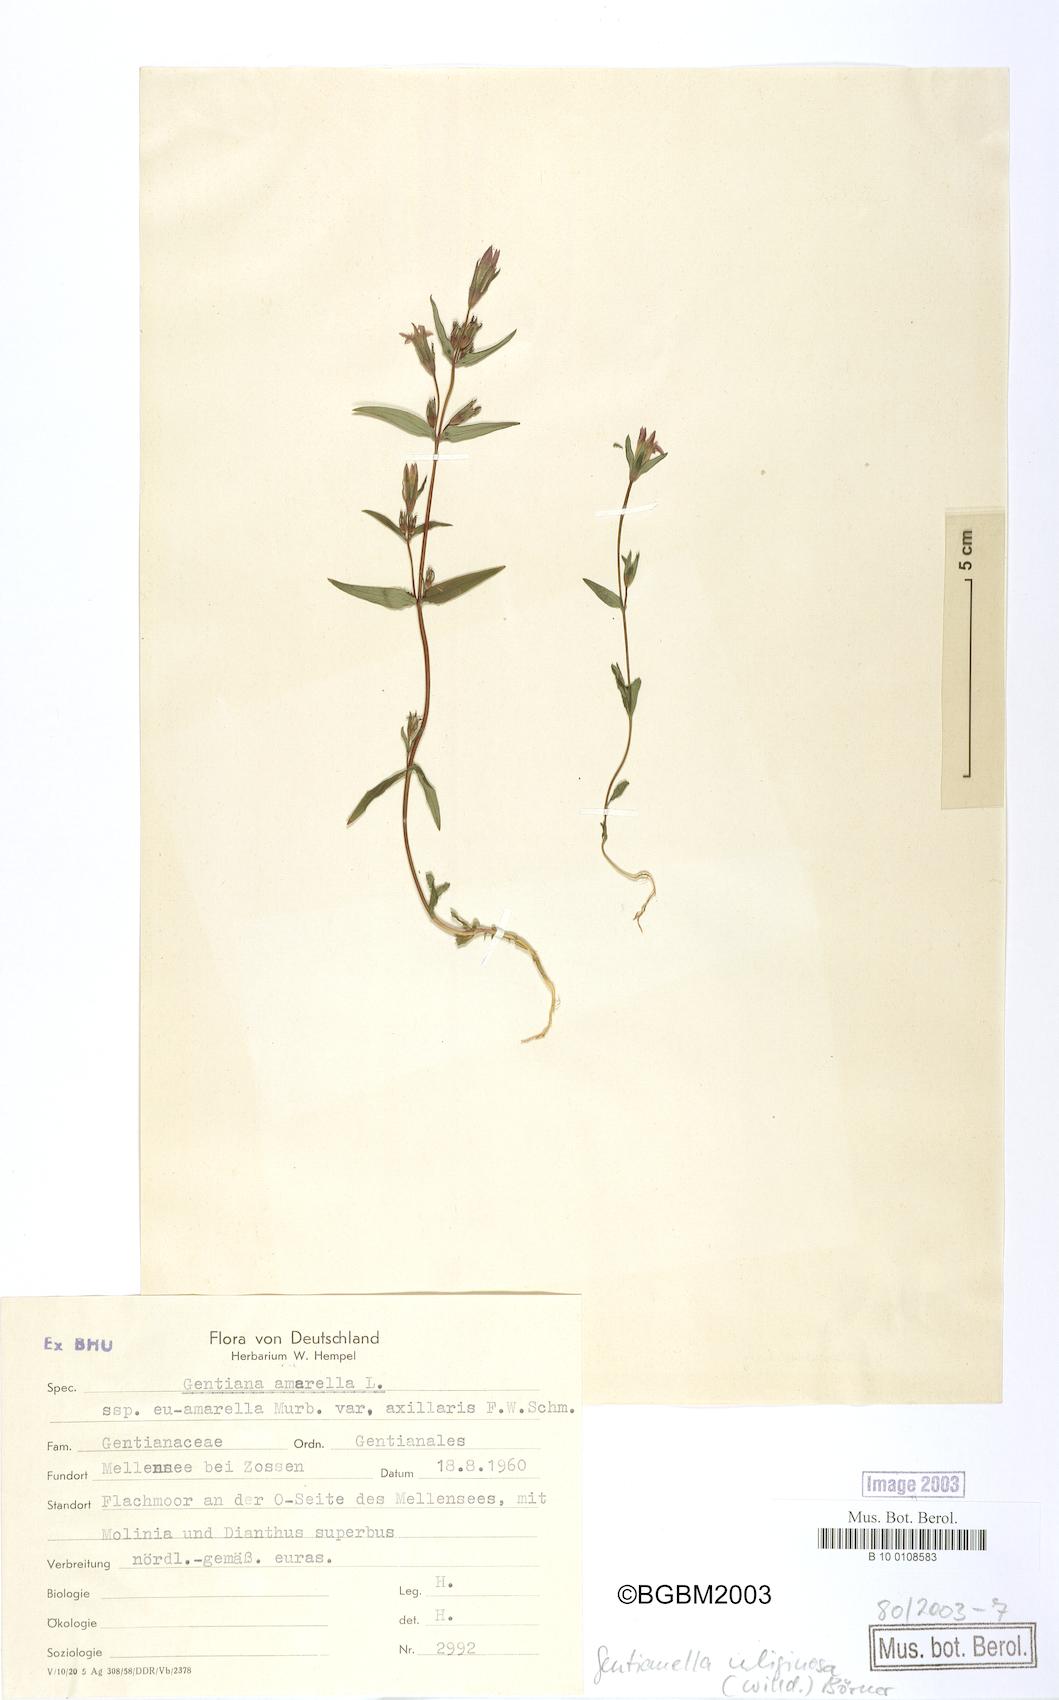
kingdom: Plantae
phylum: Tracheophyta
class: Magnoliopsida
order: Gentianales
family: Gentianaceae
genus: Gentianella
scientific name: Gentianella uliginosa
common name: Dune gentian
